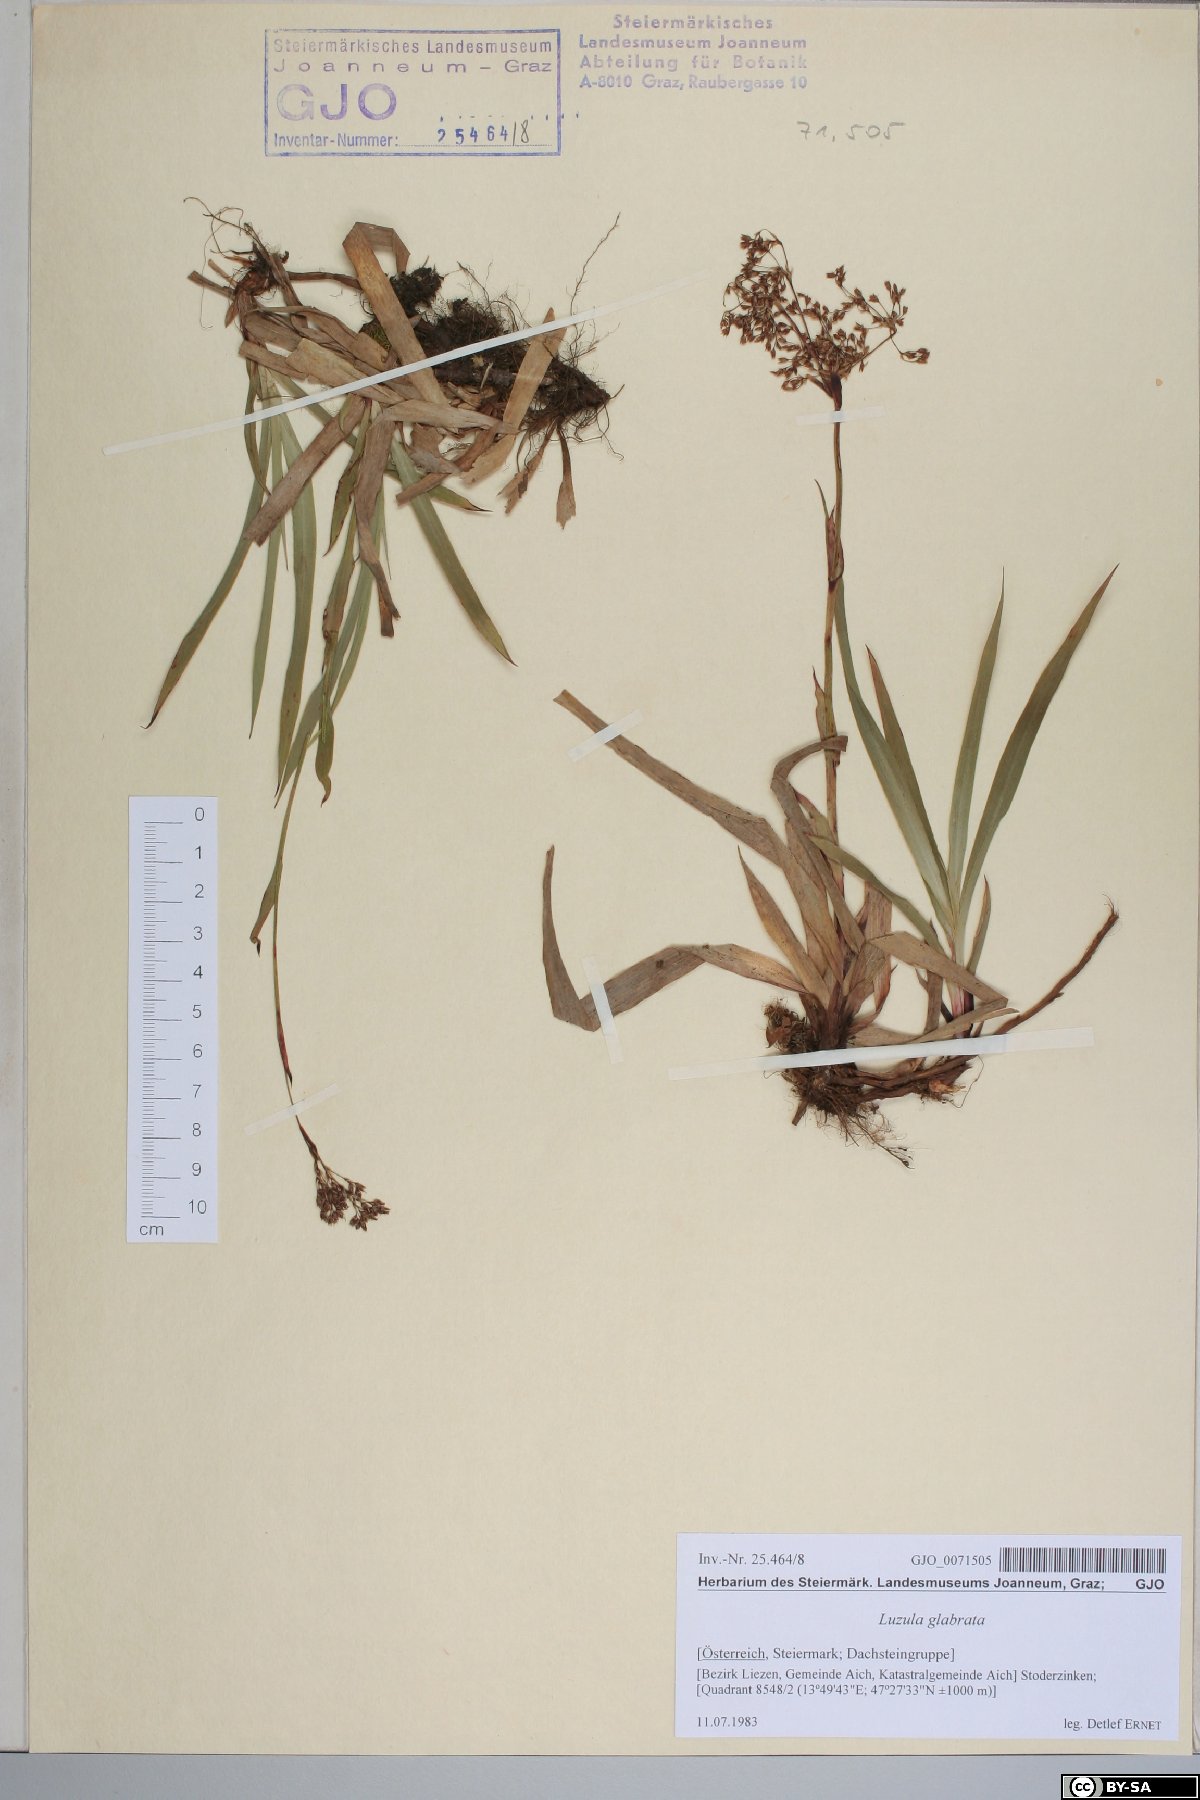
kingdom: Plantae
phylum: Tracheophyta
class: Liliopsida
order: Poales
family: Juncaceae
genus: Luzula
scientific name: Luzula glabrata
